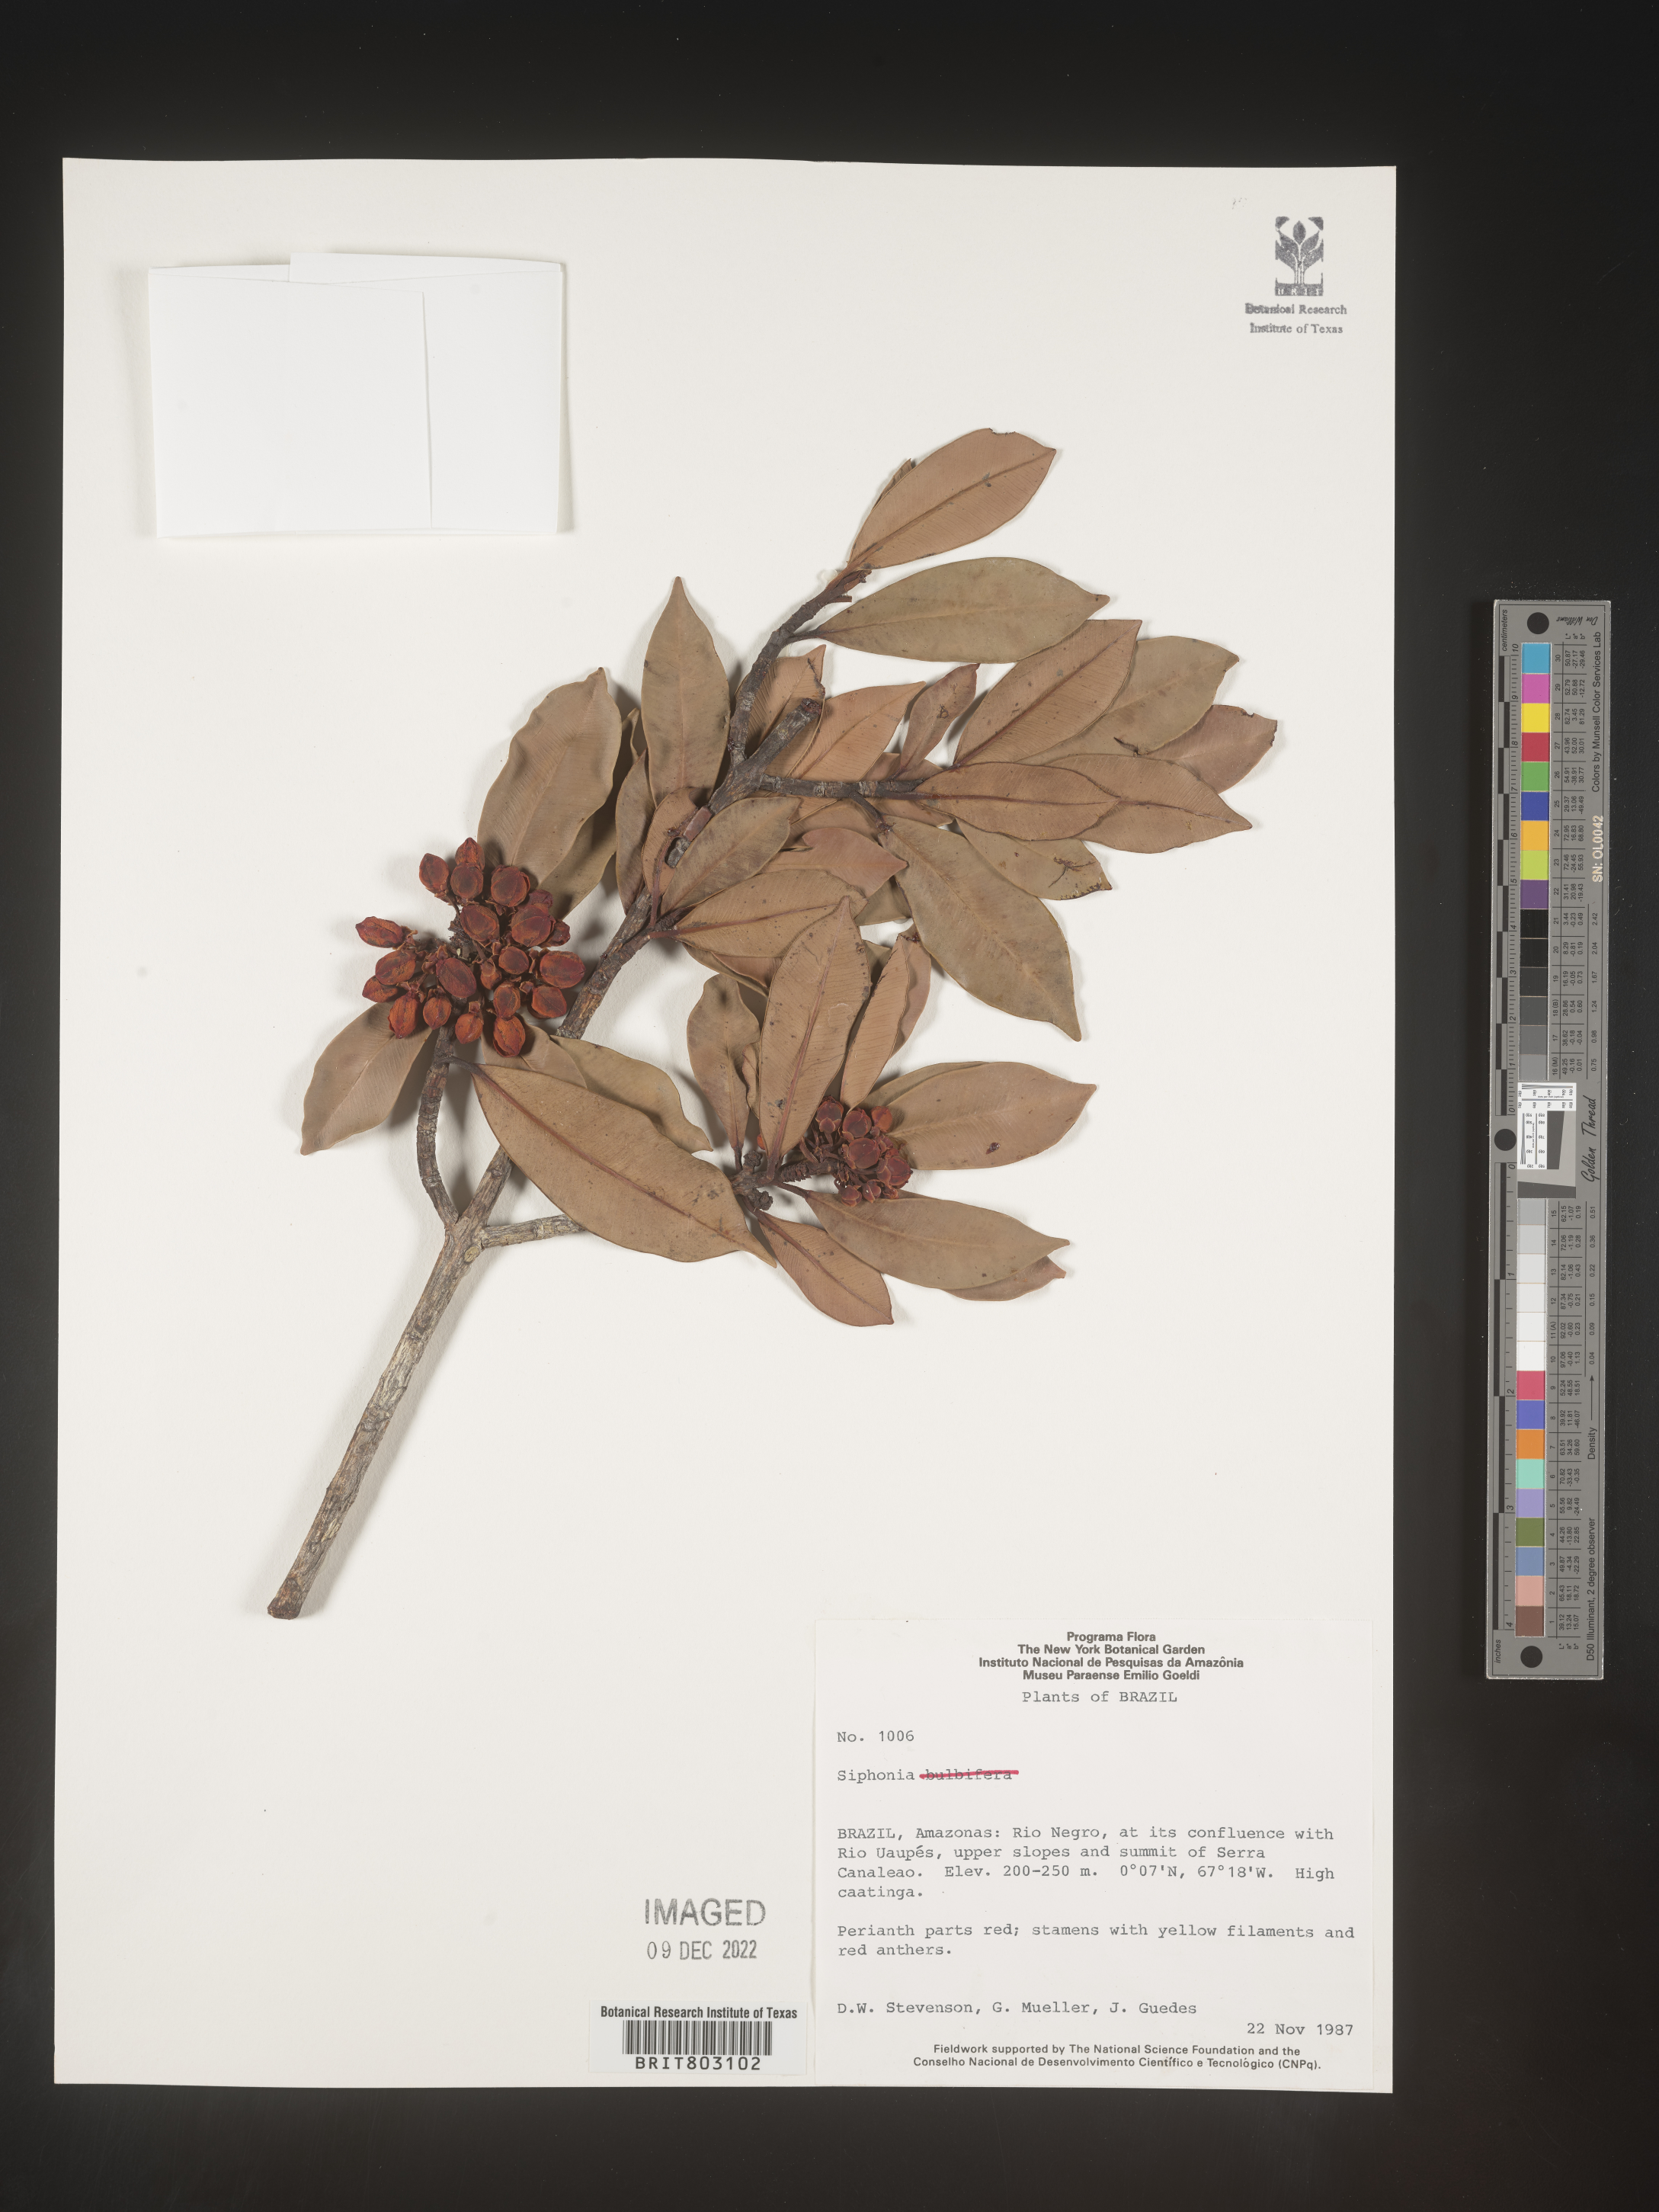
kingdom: Plantae
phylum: Tracheophyta
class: Magnoliopsida
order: Malpighiales
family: Clusiaceae
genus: Symphonia
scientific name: Symphonia
